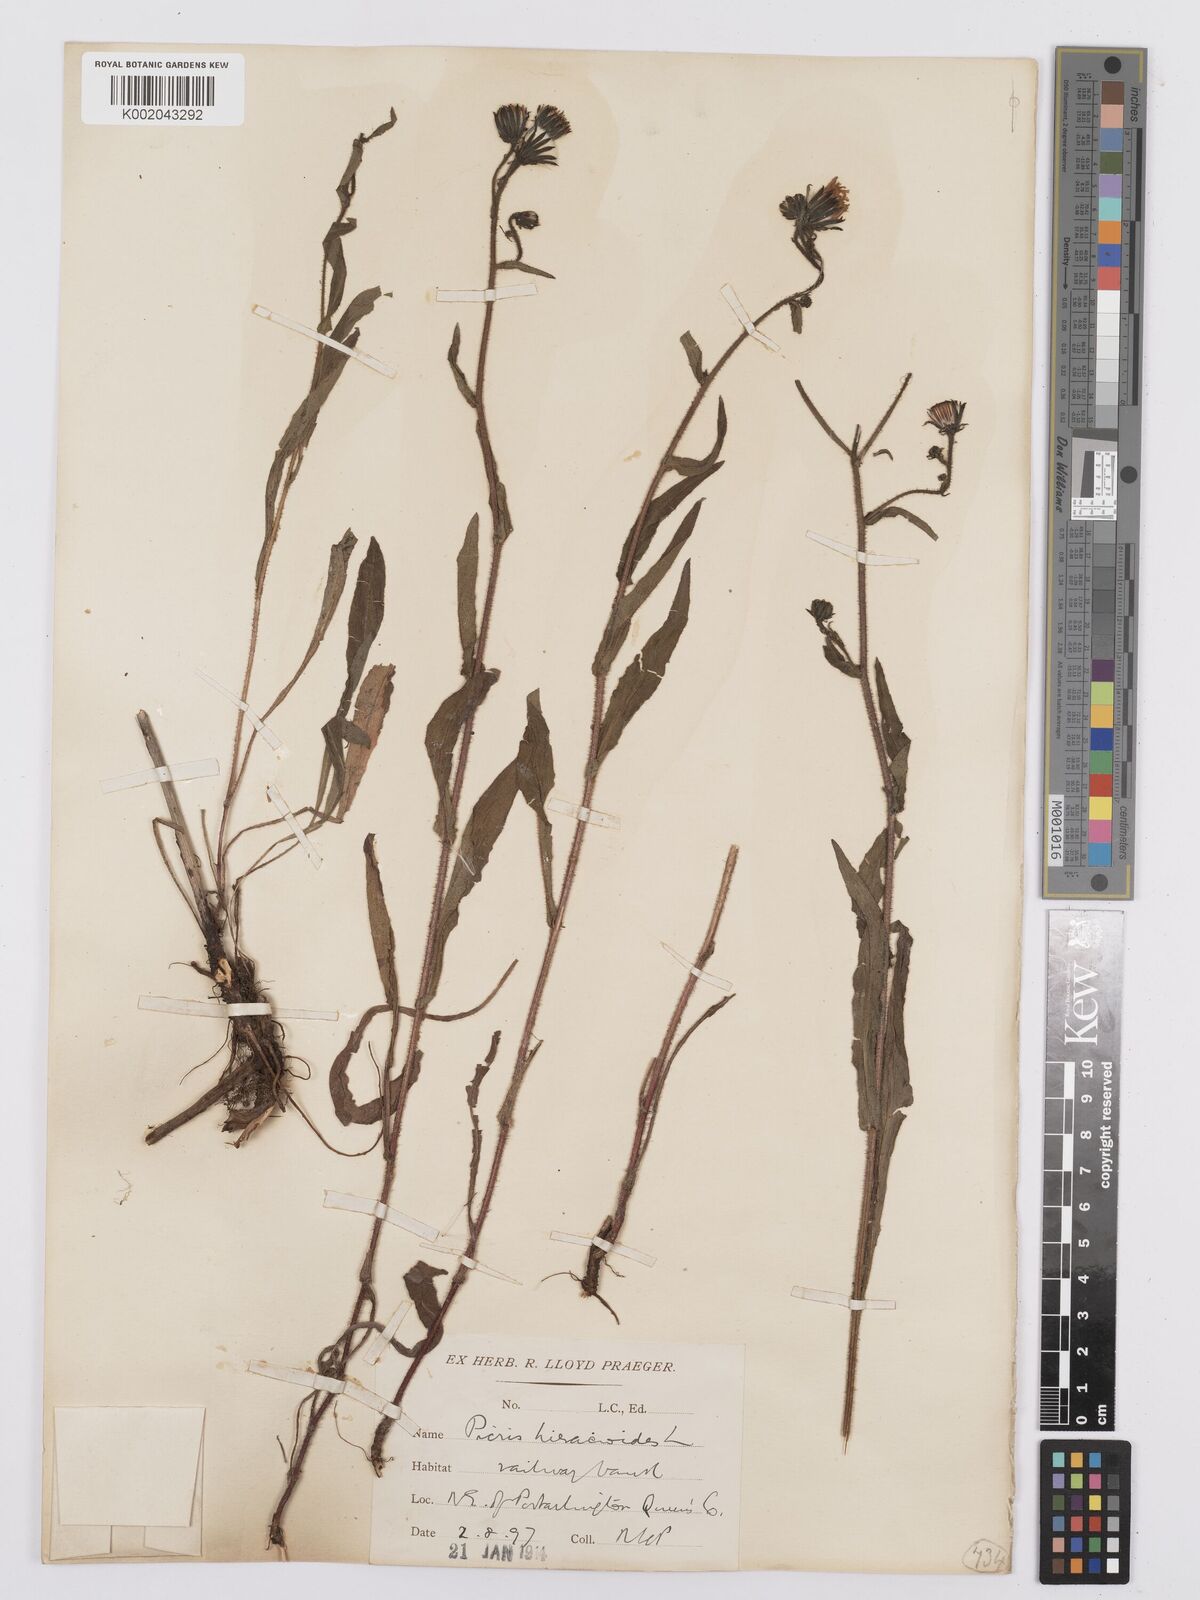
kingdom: Plantae
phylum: Tracheophyta
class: Magnoliopsida
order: Asterales
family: Asteraceae
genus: Picris
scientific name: Picris hieracioides
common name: Hawkweed oxtongue
